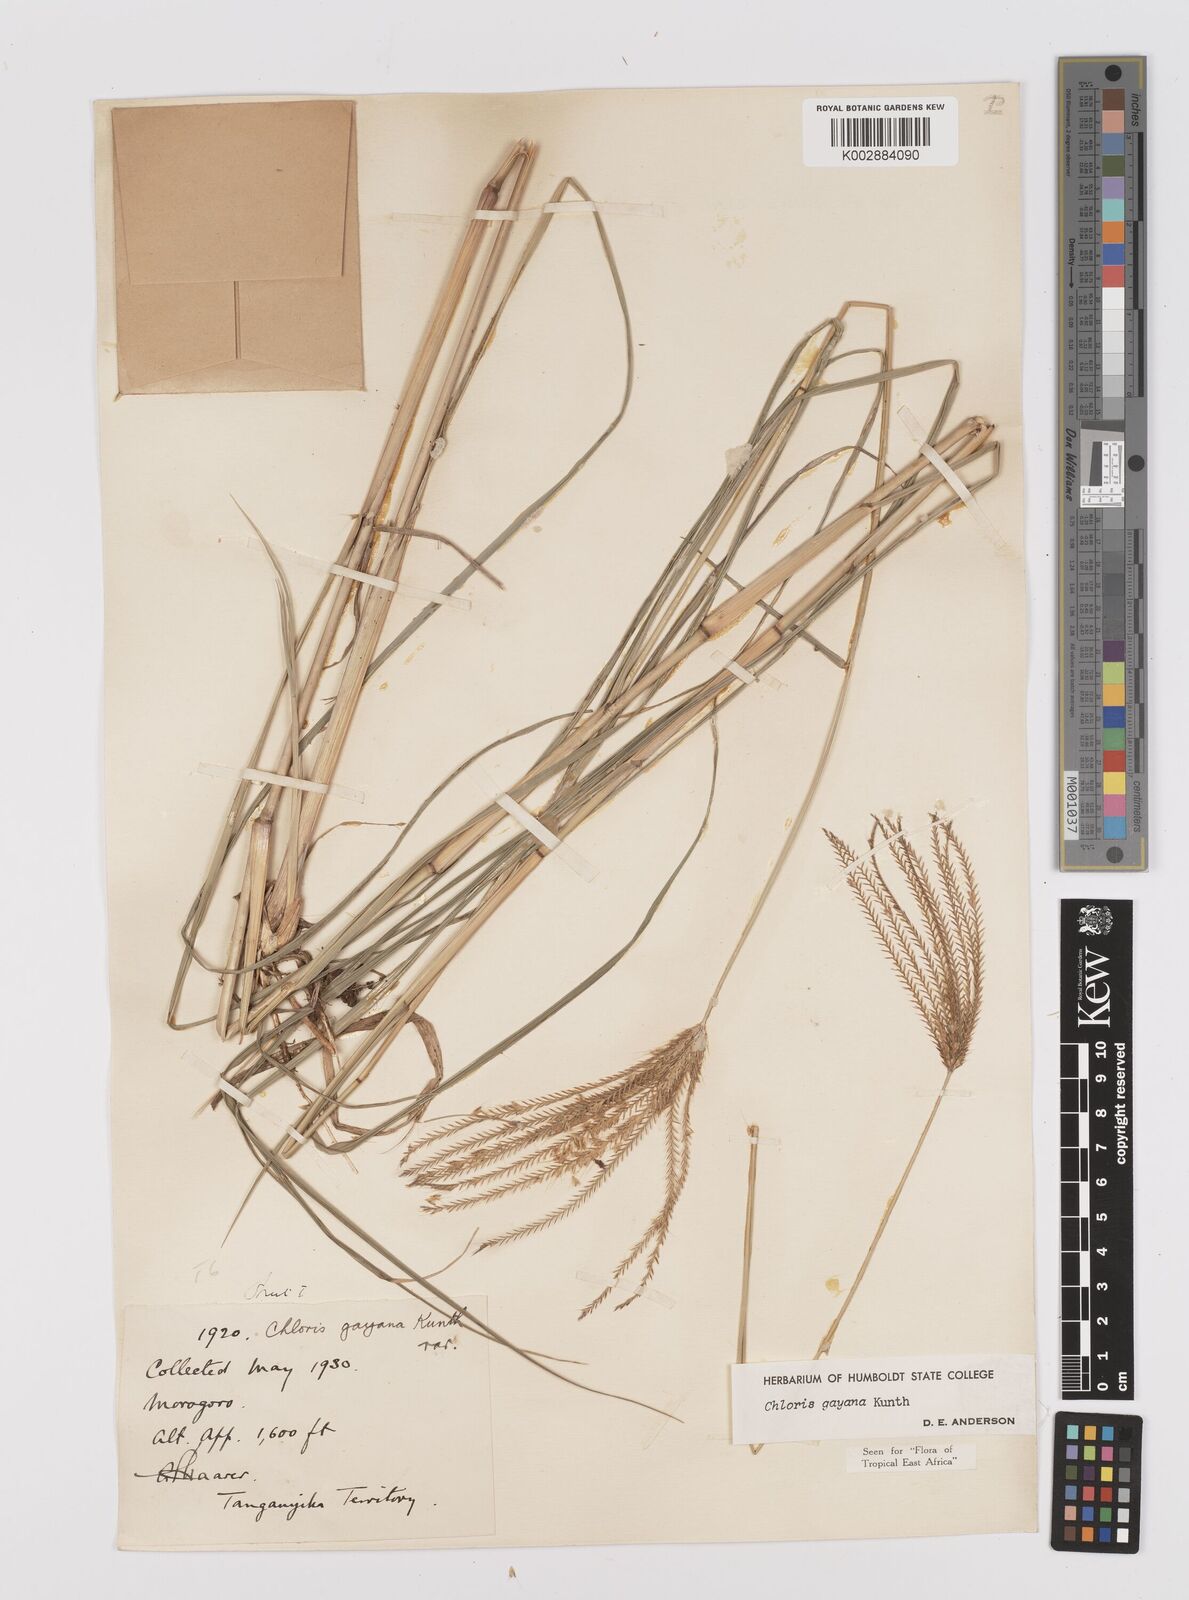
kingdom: Plantae
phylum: Tracheophyta
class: Liliopsida
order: Poales
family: Poaceae
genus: Chloris
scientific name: Chloris gayana
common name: Rhodes grass
